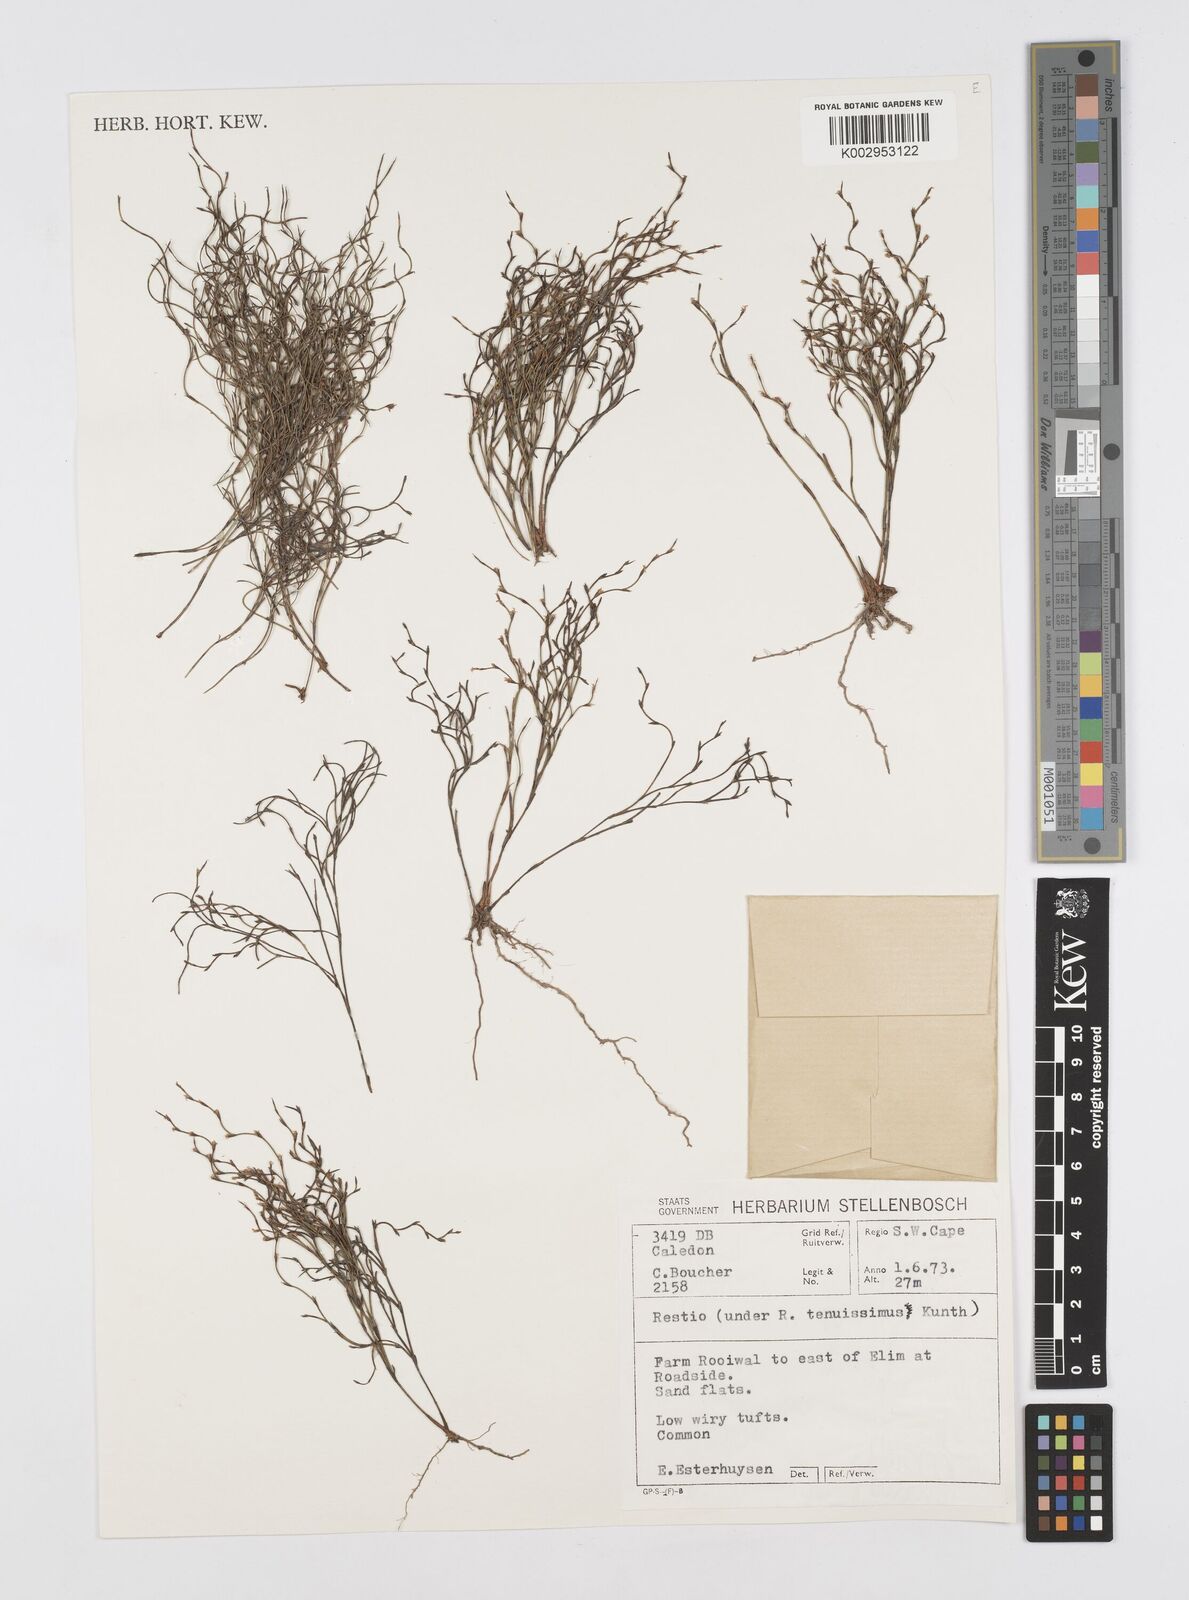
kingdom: Plantae
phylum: Tracheophyta
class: Liliopsida
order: Poales
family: Restionaceae
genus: Restio
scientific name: Restio tenuissimus
